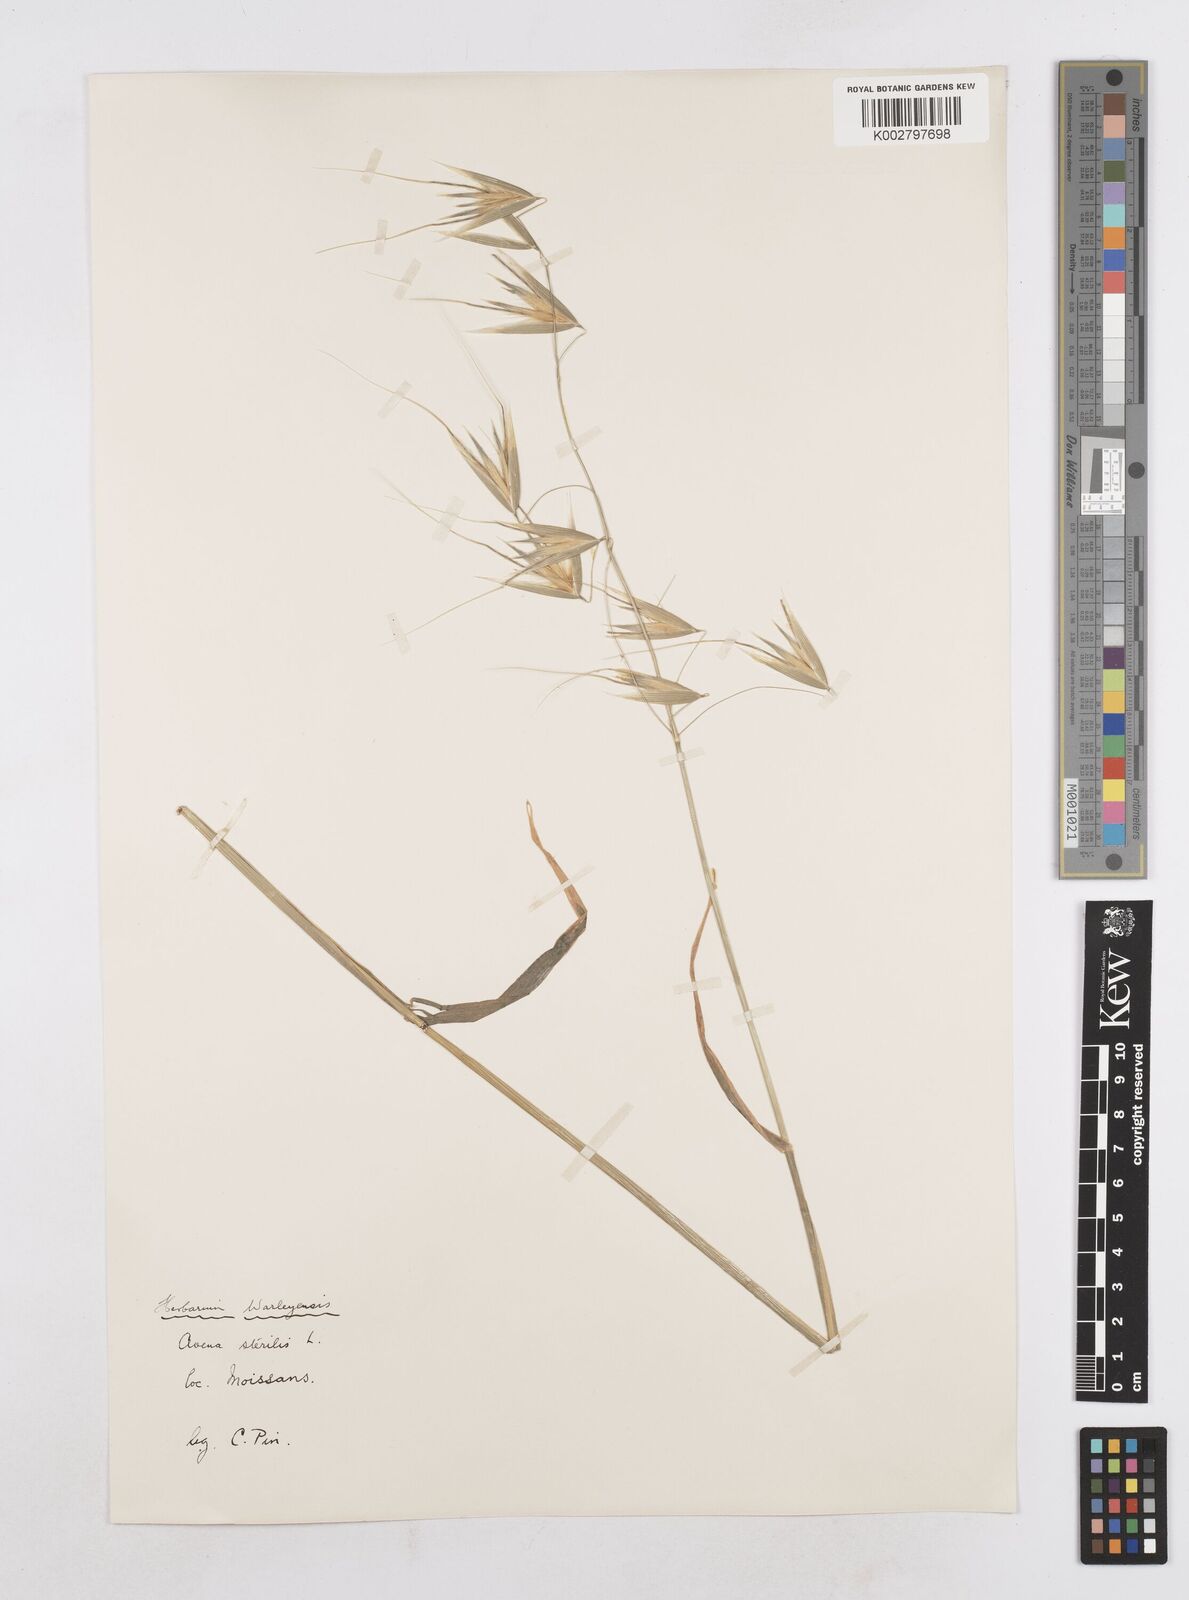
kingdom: Plantae
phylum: Tracheophyta
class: Liliopsida
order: Poales
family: Poaceae
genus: Avena
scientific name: Avena sterilis
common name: Animated oat
